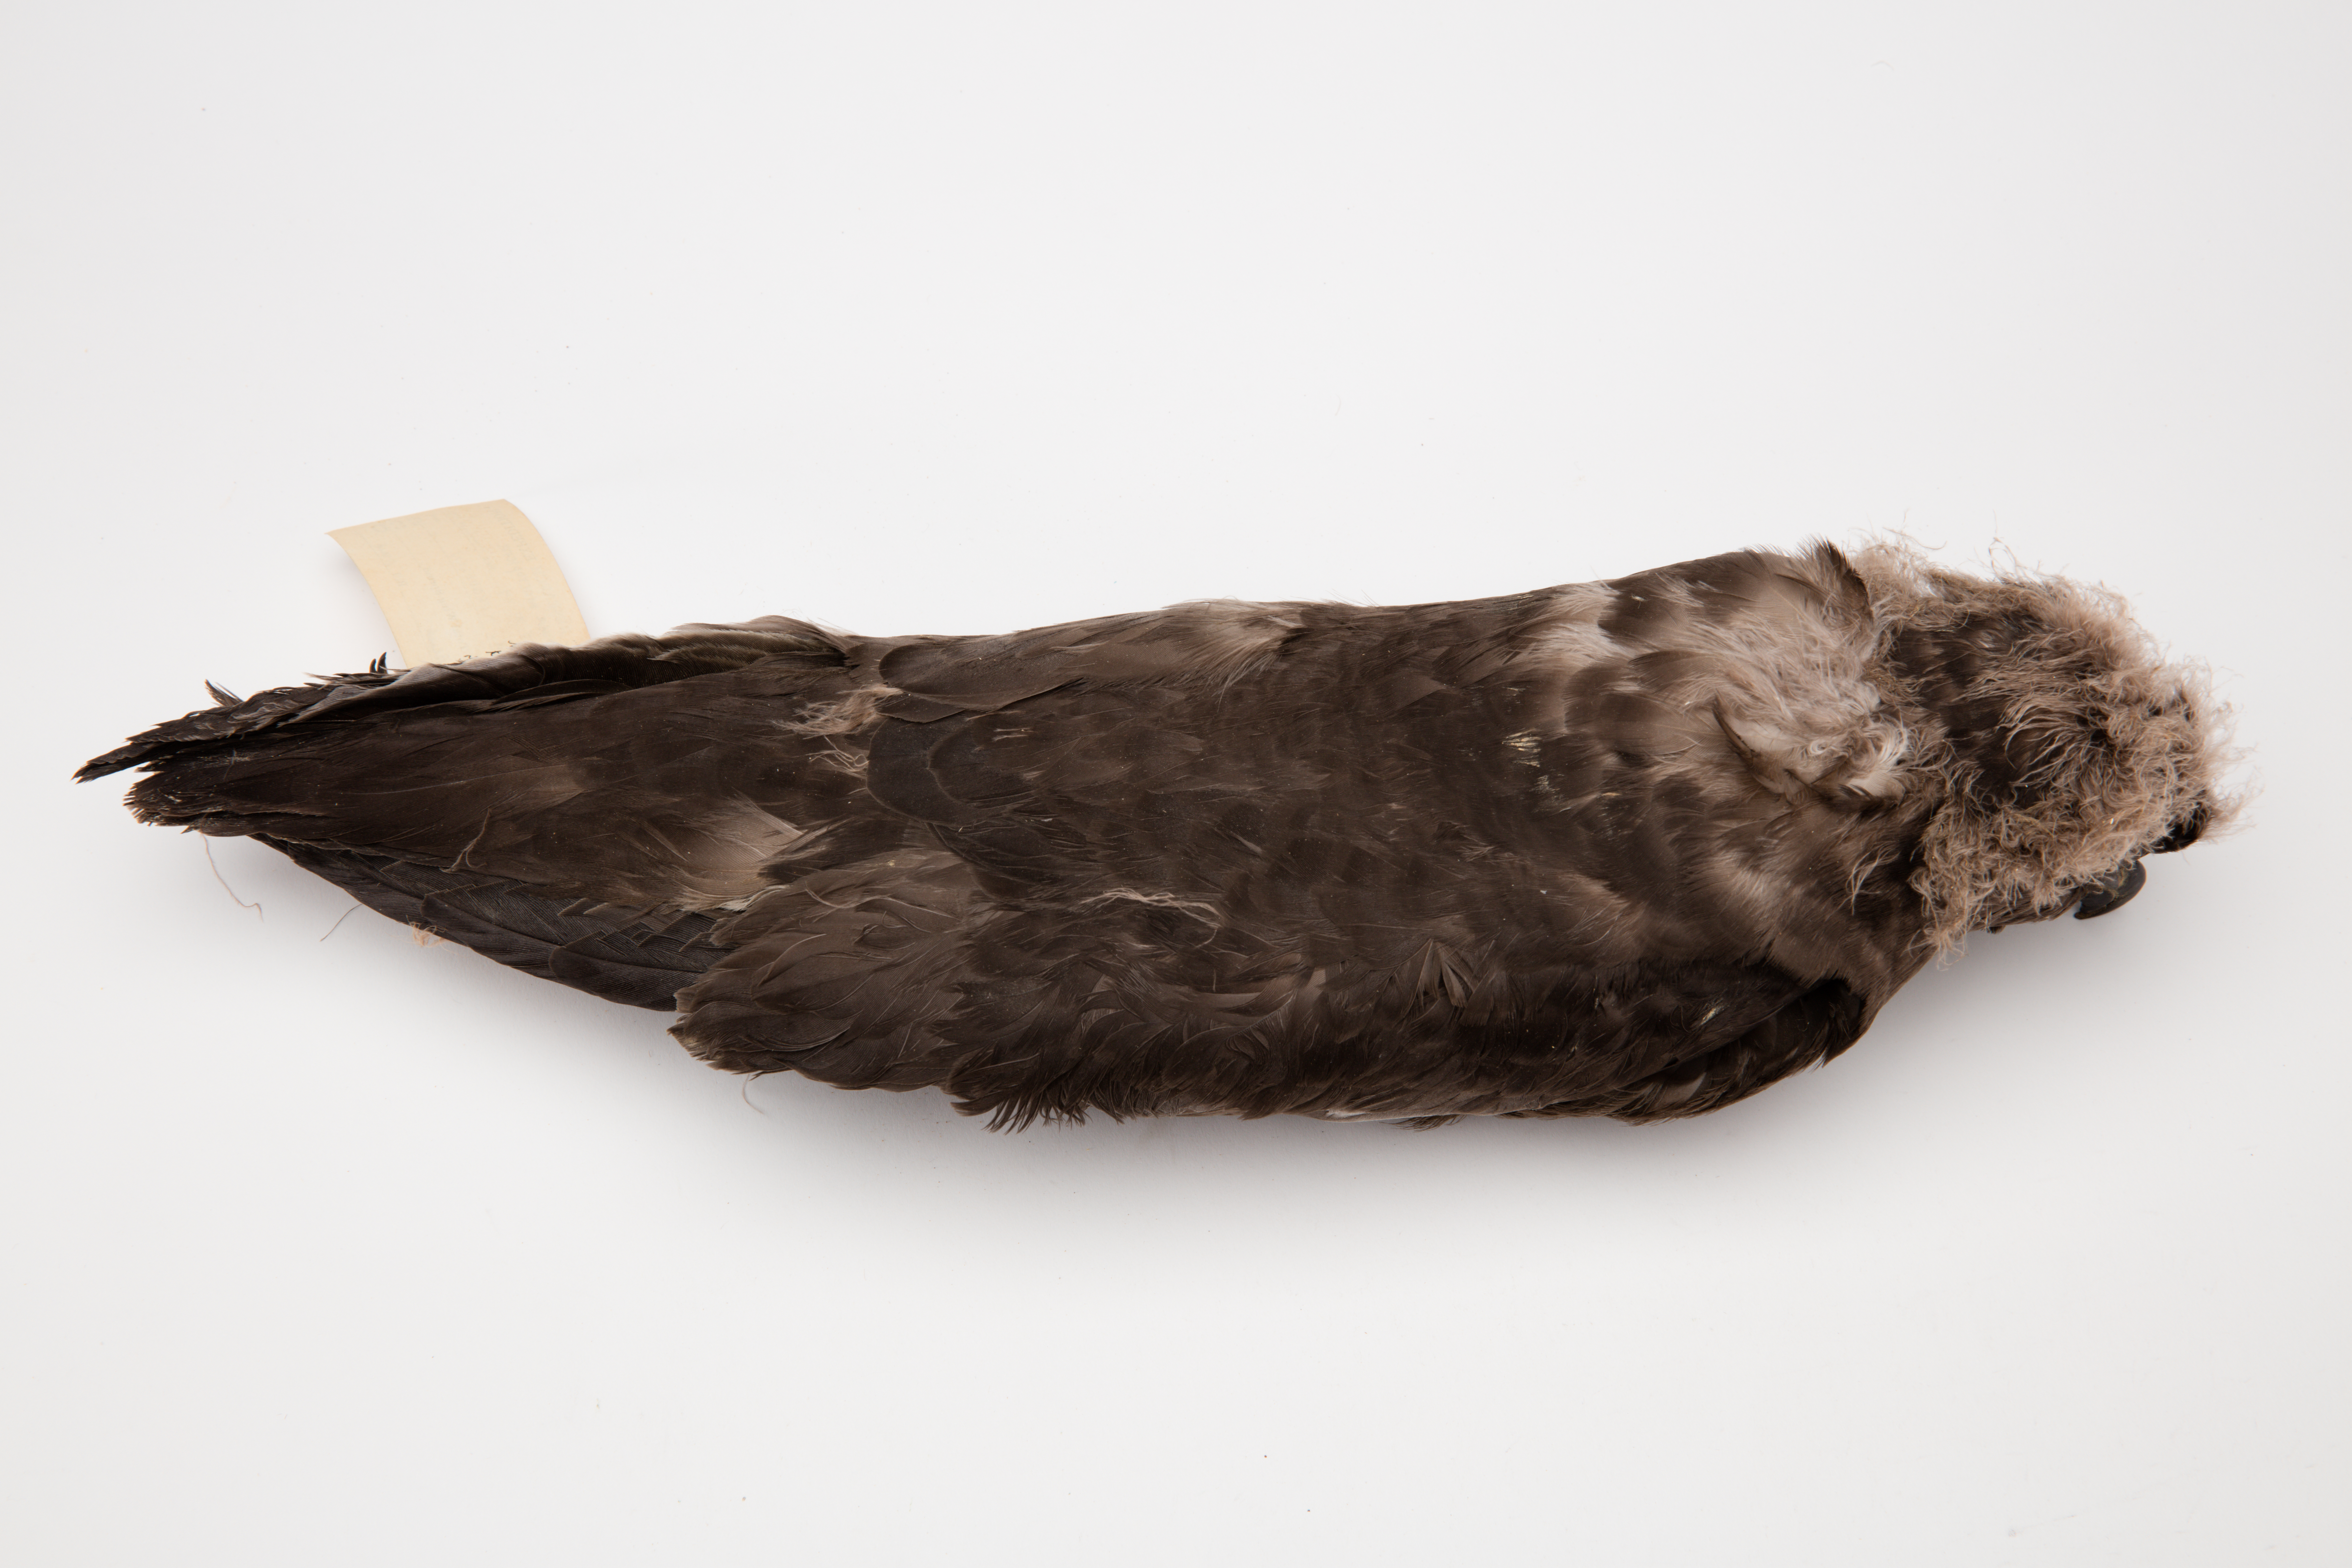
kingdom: Animalia
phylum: Chordata
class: Aves
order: Procellariiformes
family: Procellariidae
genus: Pterodroma
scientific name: Pterodroma macroptera
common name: Great-winged petrel
